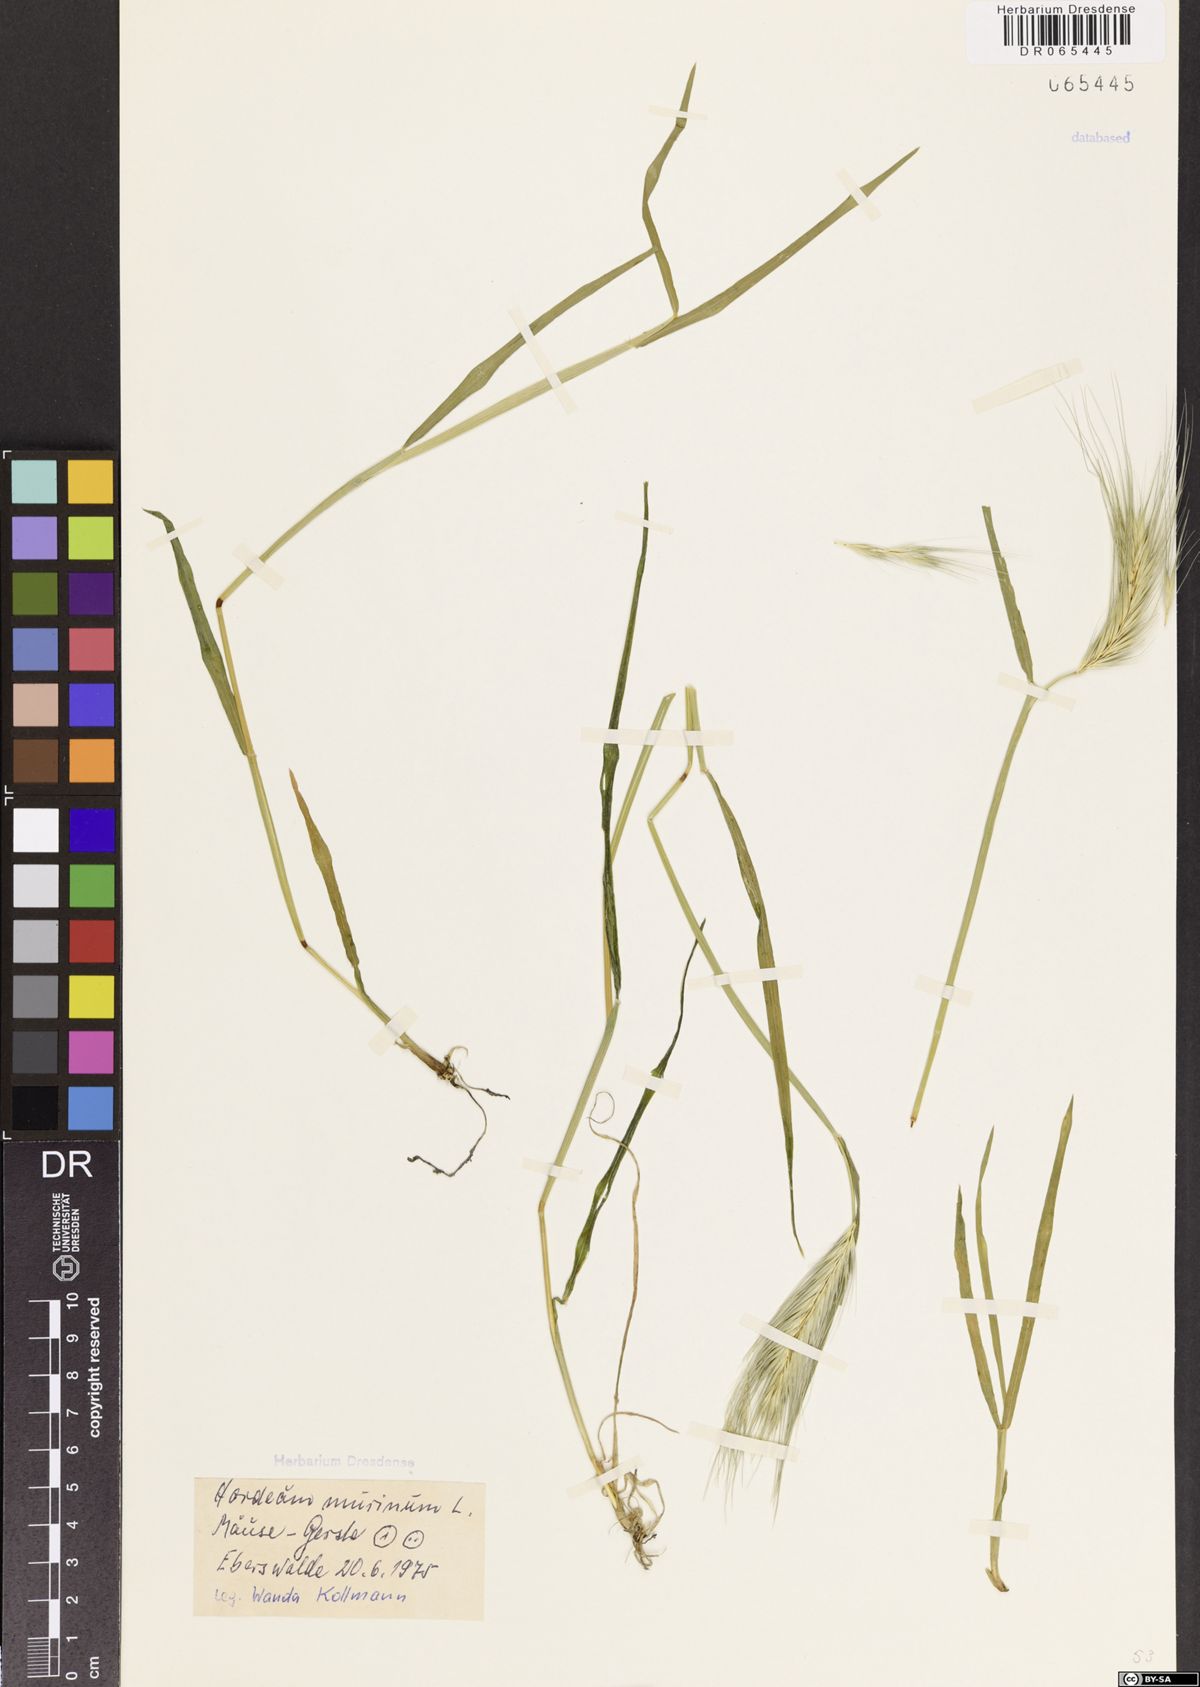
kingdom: Plantae
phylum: Tracheophyta
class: Liliopsida
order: Poales
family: Poaceae
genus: Hordeum
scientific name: Hordeum murinum
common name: Wall barley
